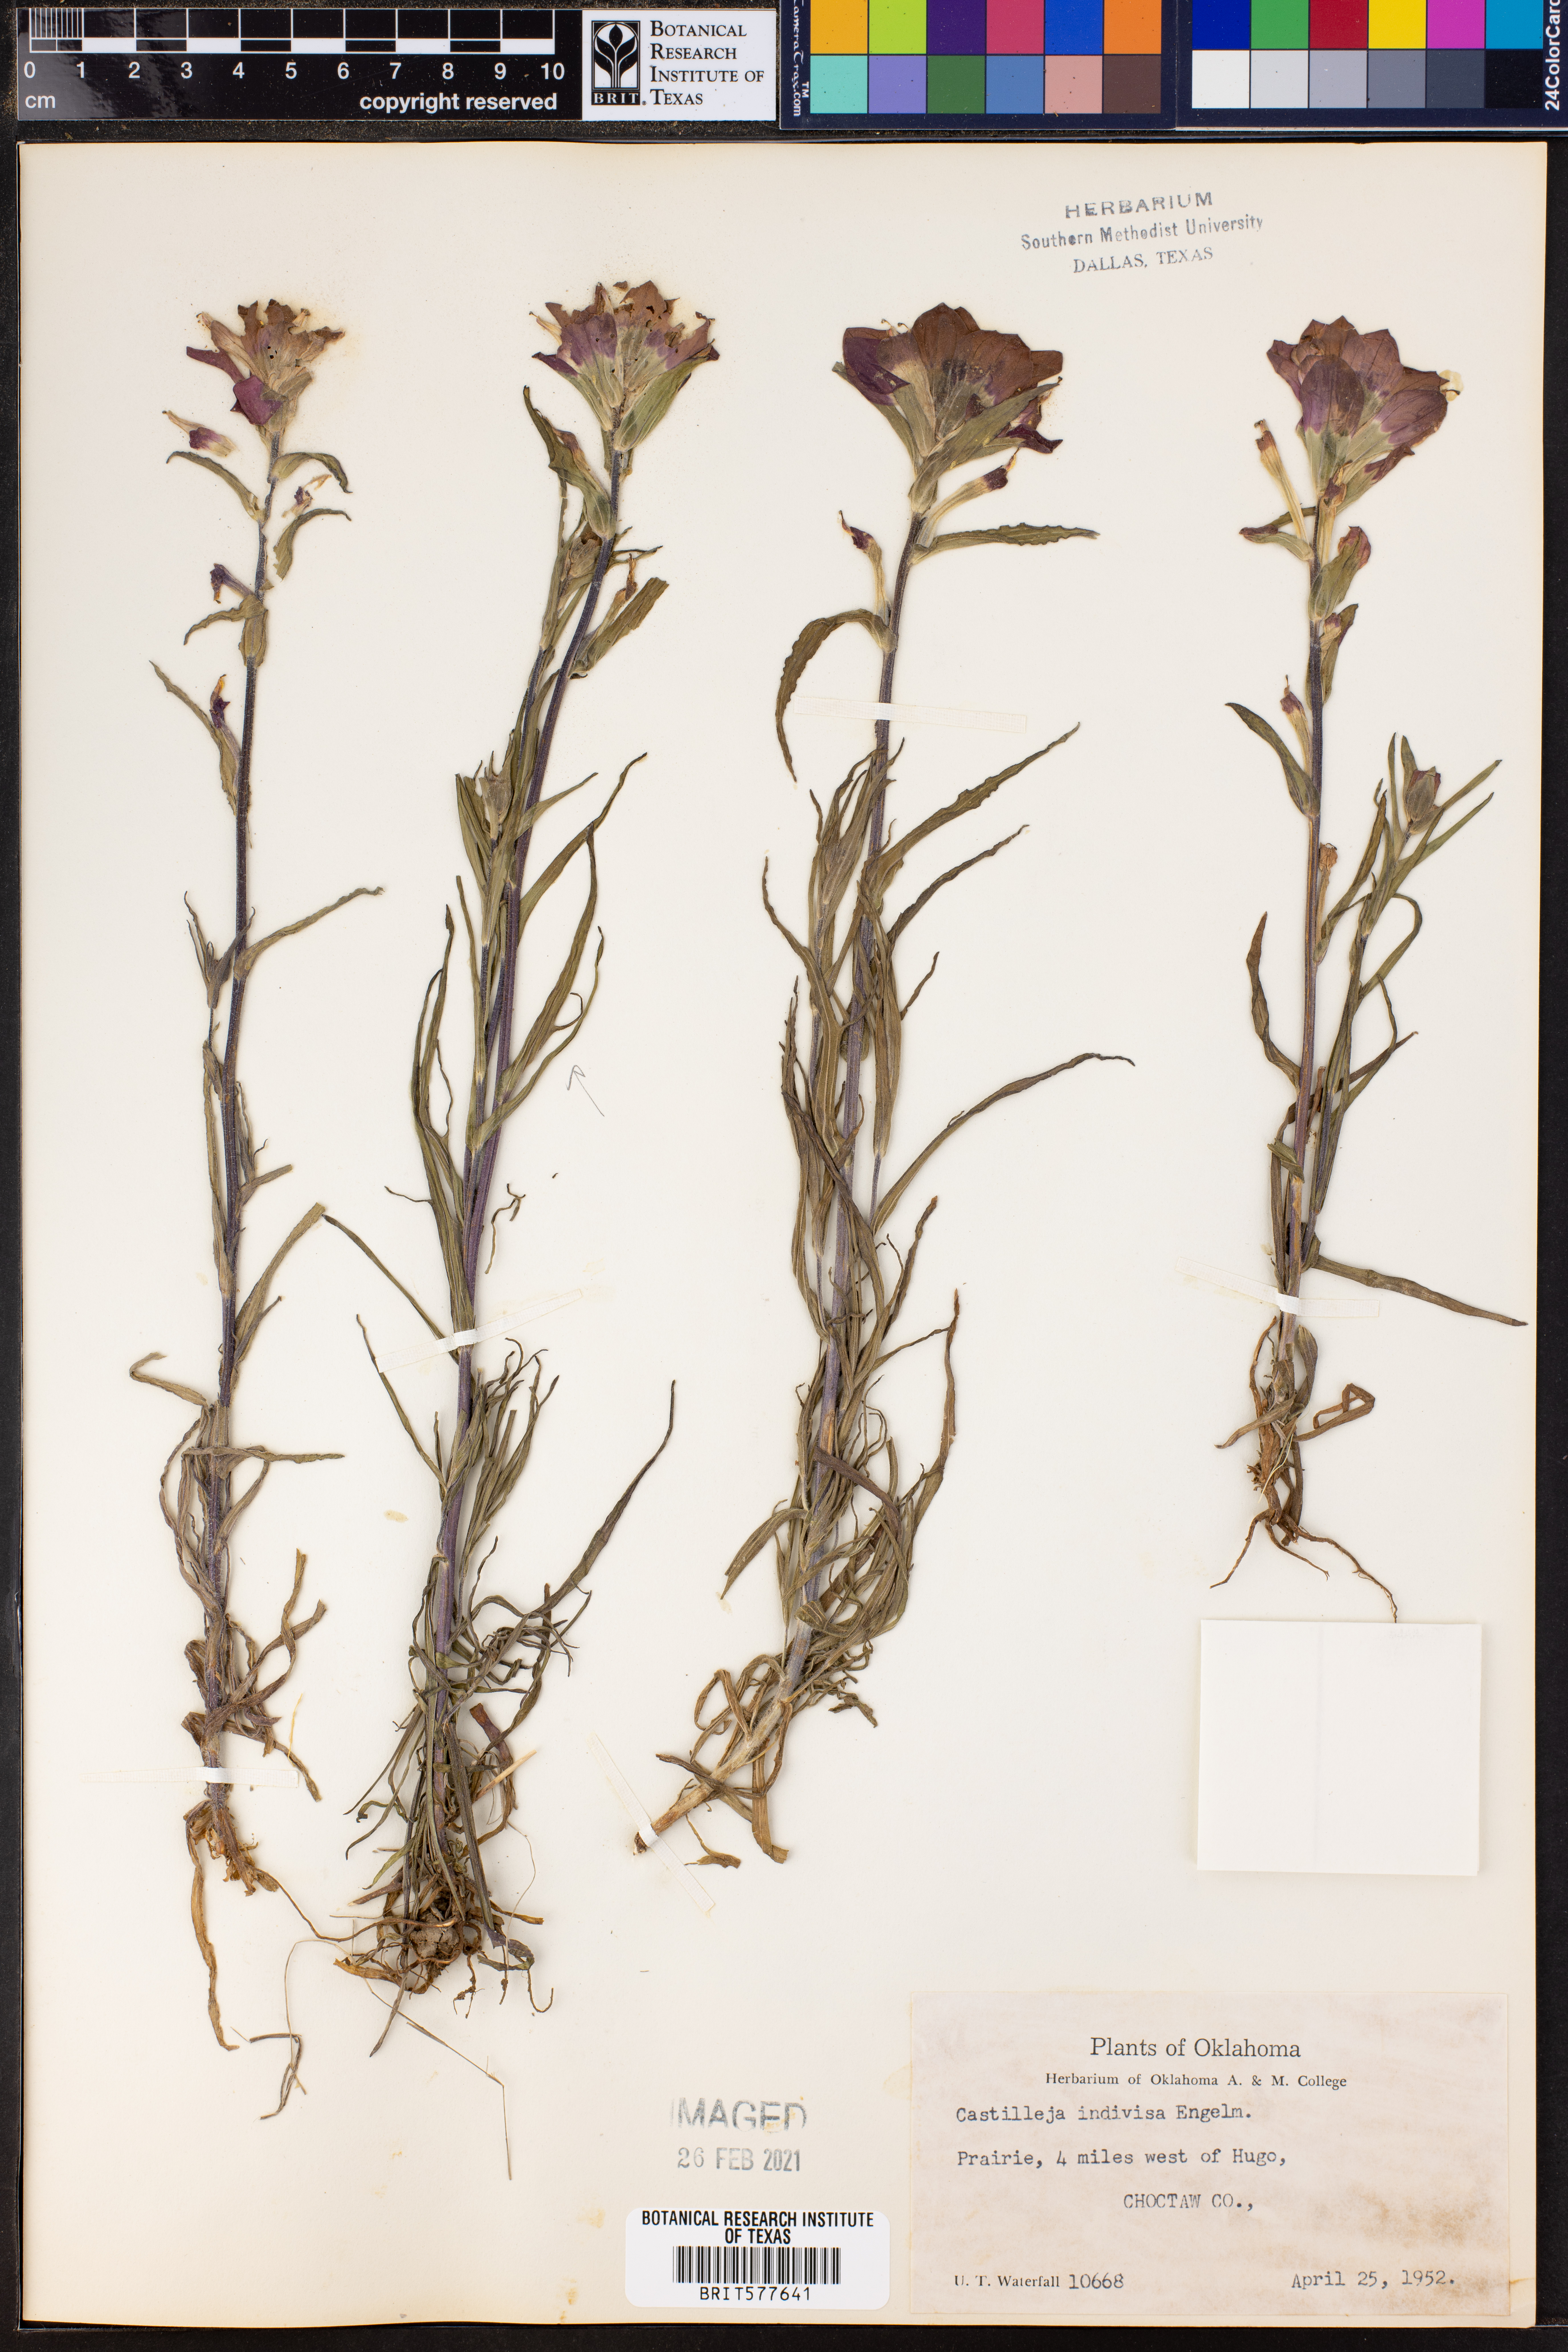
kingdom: Plantae
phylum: Tracheophyta
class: Magnoliopsida
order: Lamiales
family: Orobanchaceae
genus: Castilleja
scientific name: Castilleja indivisa
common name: Texas paintbrush
